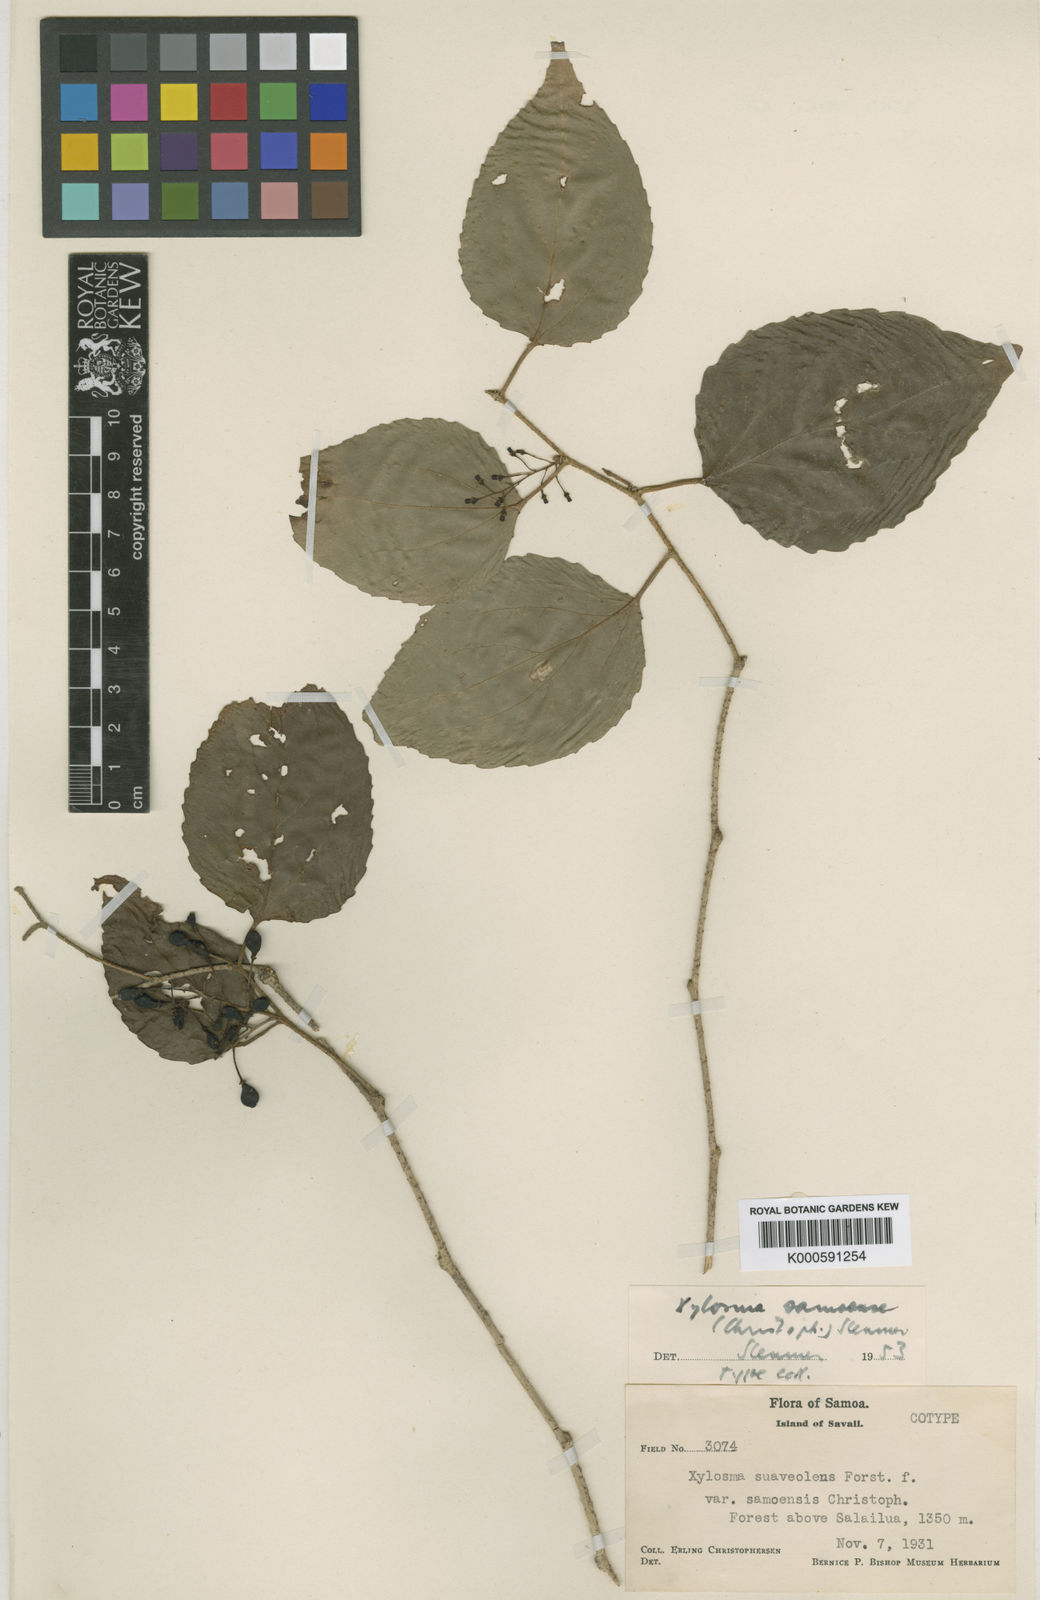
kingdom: Plantae
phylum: Tracheophyta
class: Magnoliopsida
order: Malpighiales
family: Salicaceae
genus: Xylosma
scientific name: Xylosma suaveolens
